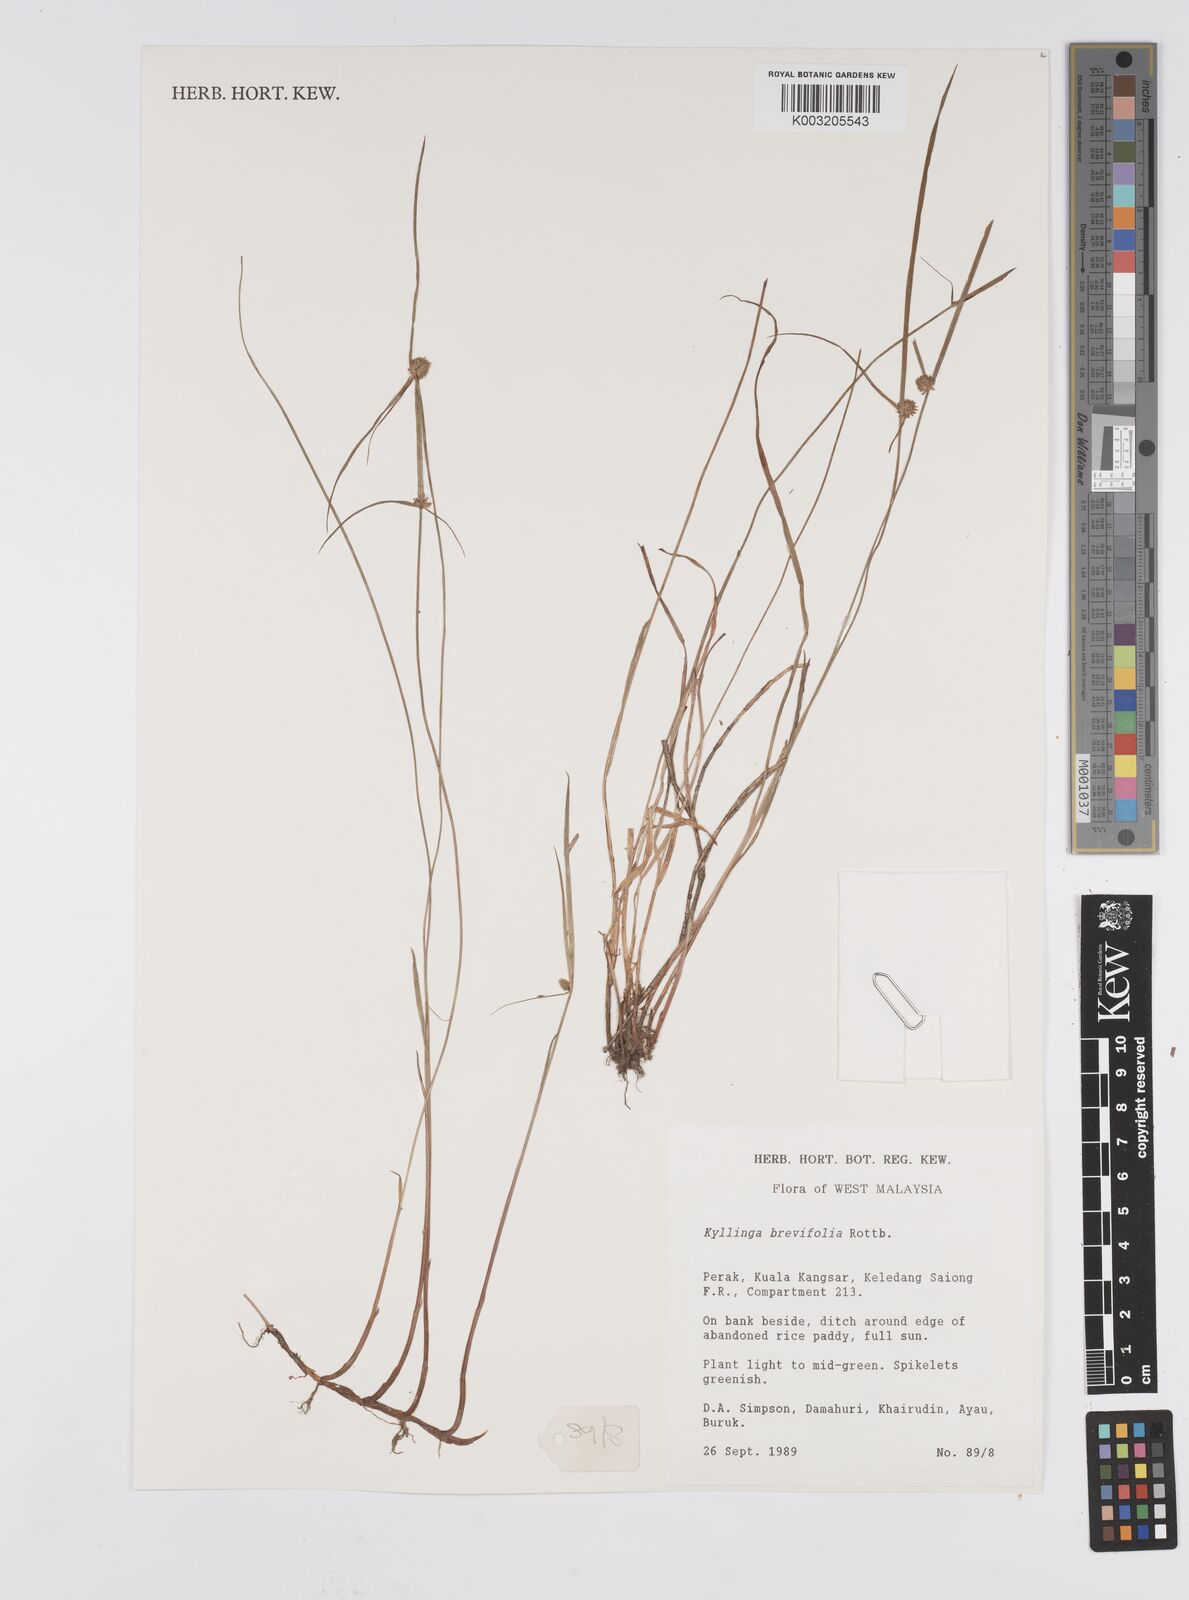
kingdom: Plantae
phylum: Tracheophyta
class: Liliopsida
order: Poales
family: Cyperaceae
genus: Cyperus
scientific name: Cyperus
